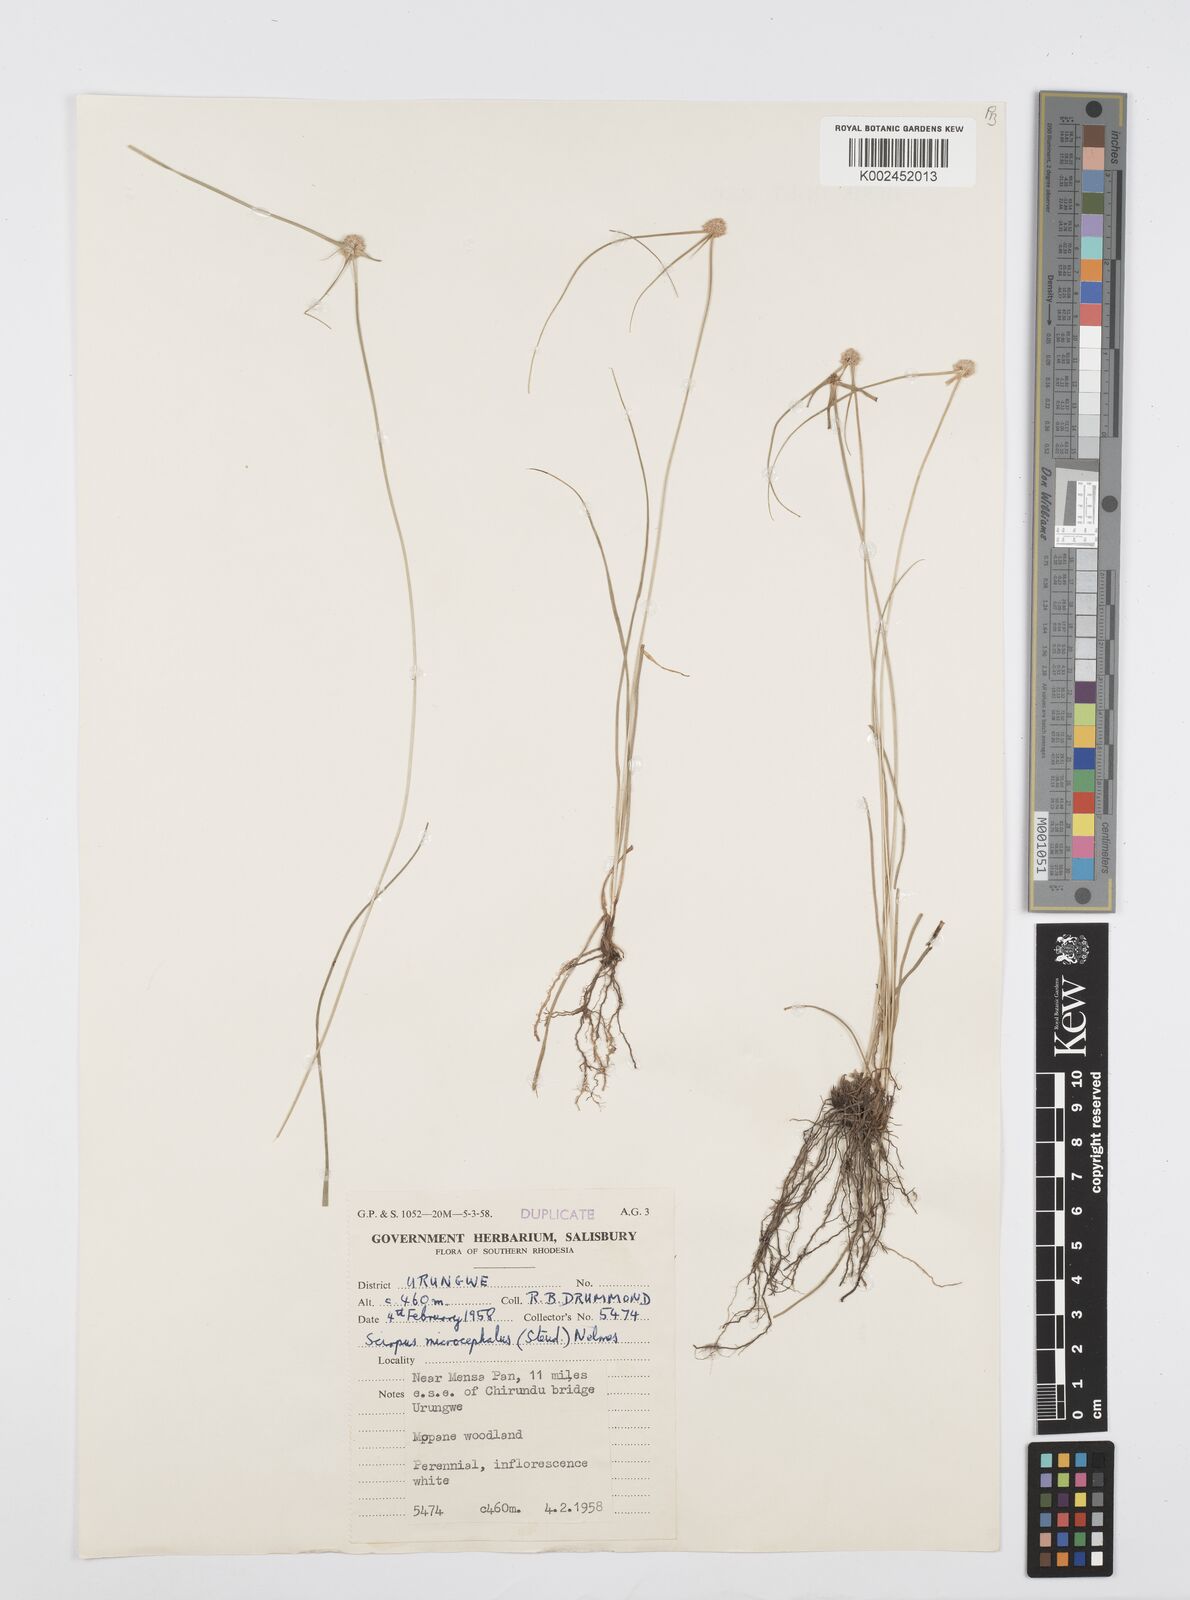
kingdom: Plantae
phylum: Tracheophyta
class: Liliopsida
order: Poales
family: Cyperaceae
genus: Cyperus
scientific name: Cyperus conglobatus
